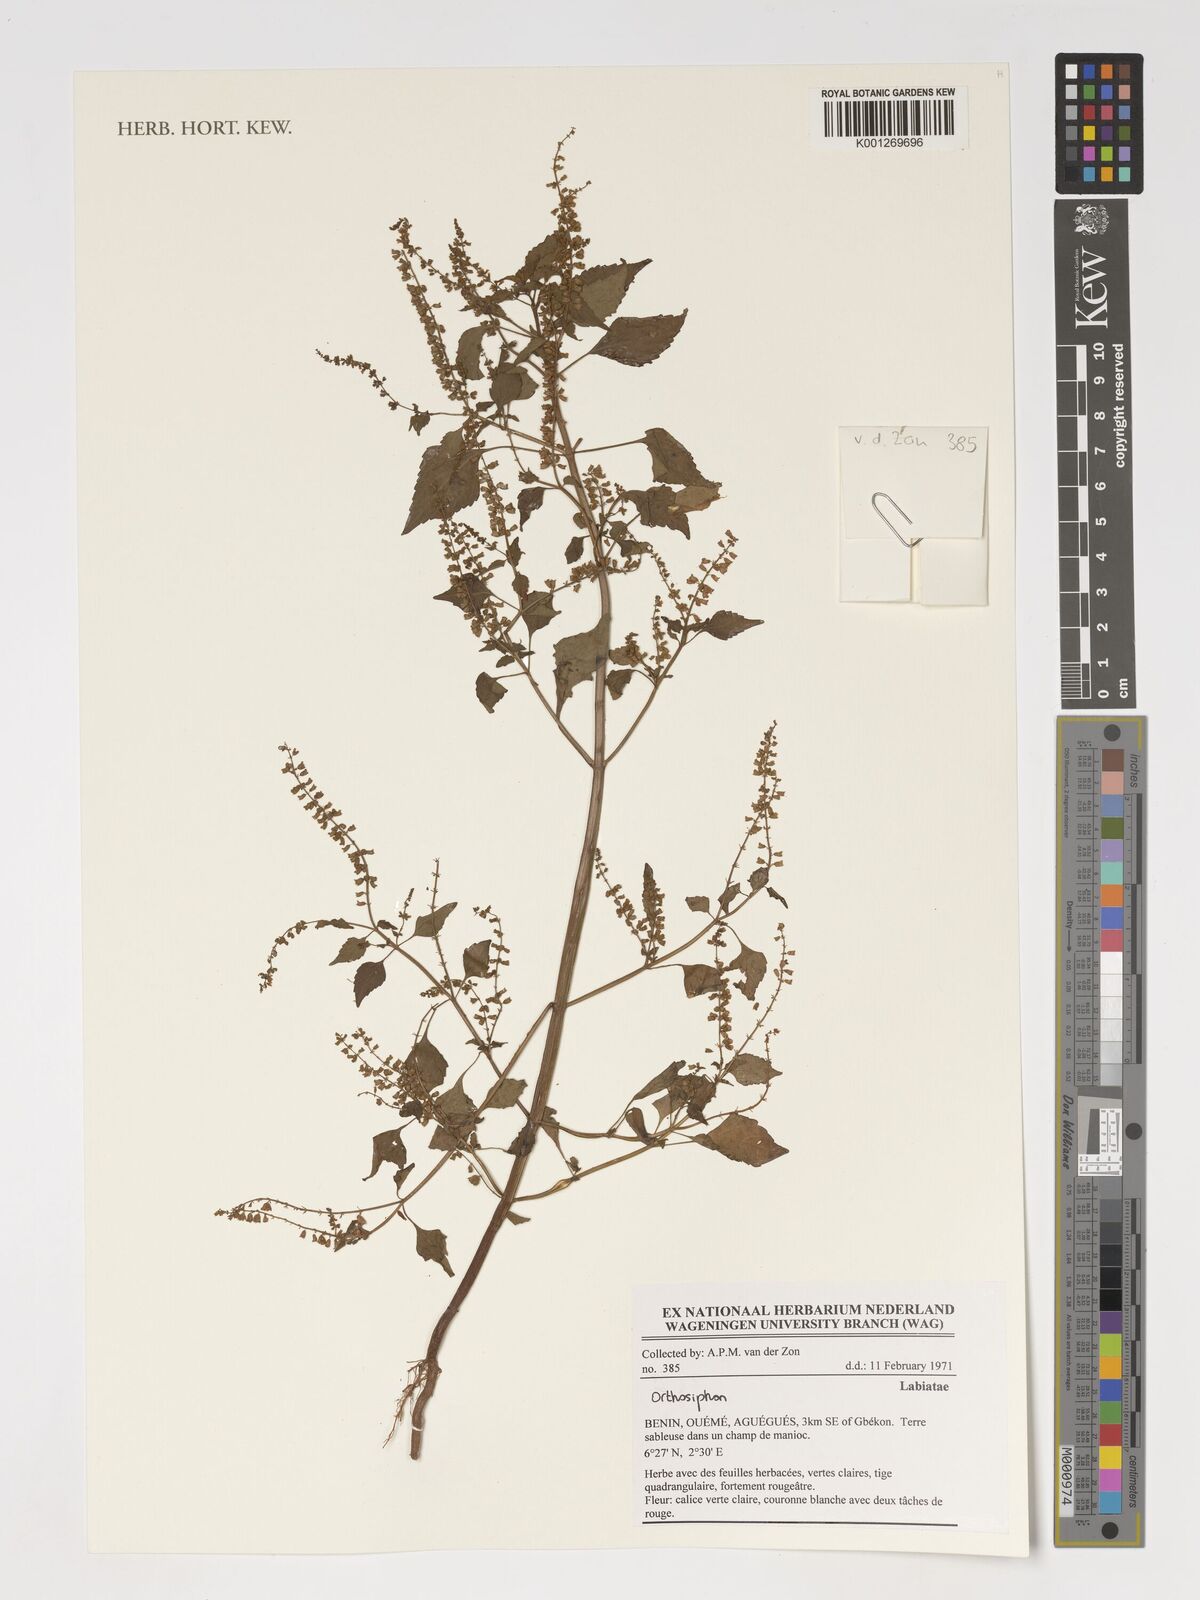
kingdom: Plantae
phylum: Tracheophyta
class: Magnoliopsida
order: Lamiales
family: Lamiaceae
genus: Orthosiphon
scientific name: Orthosiphon
